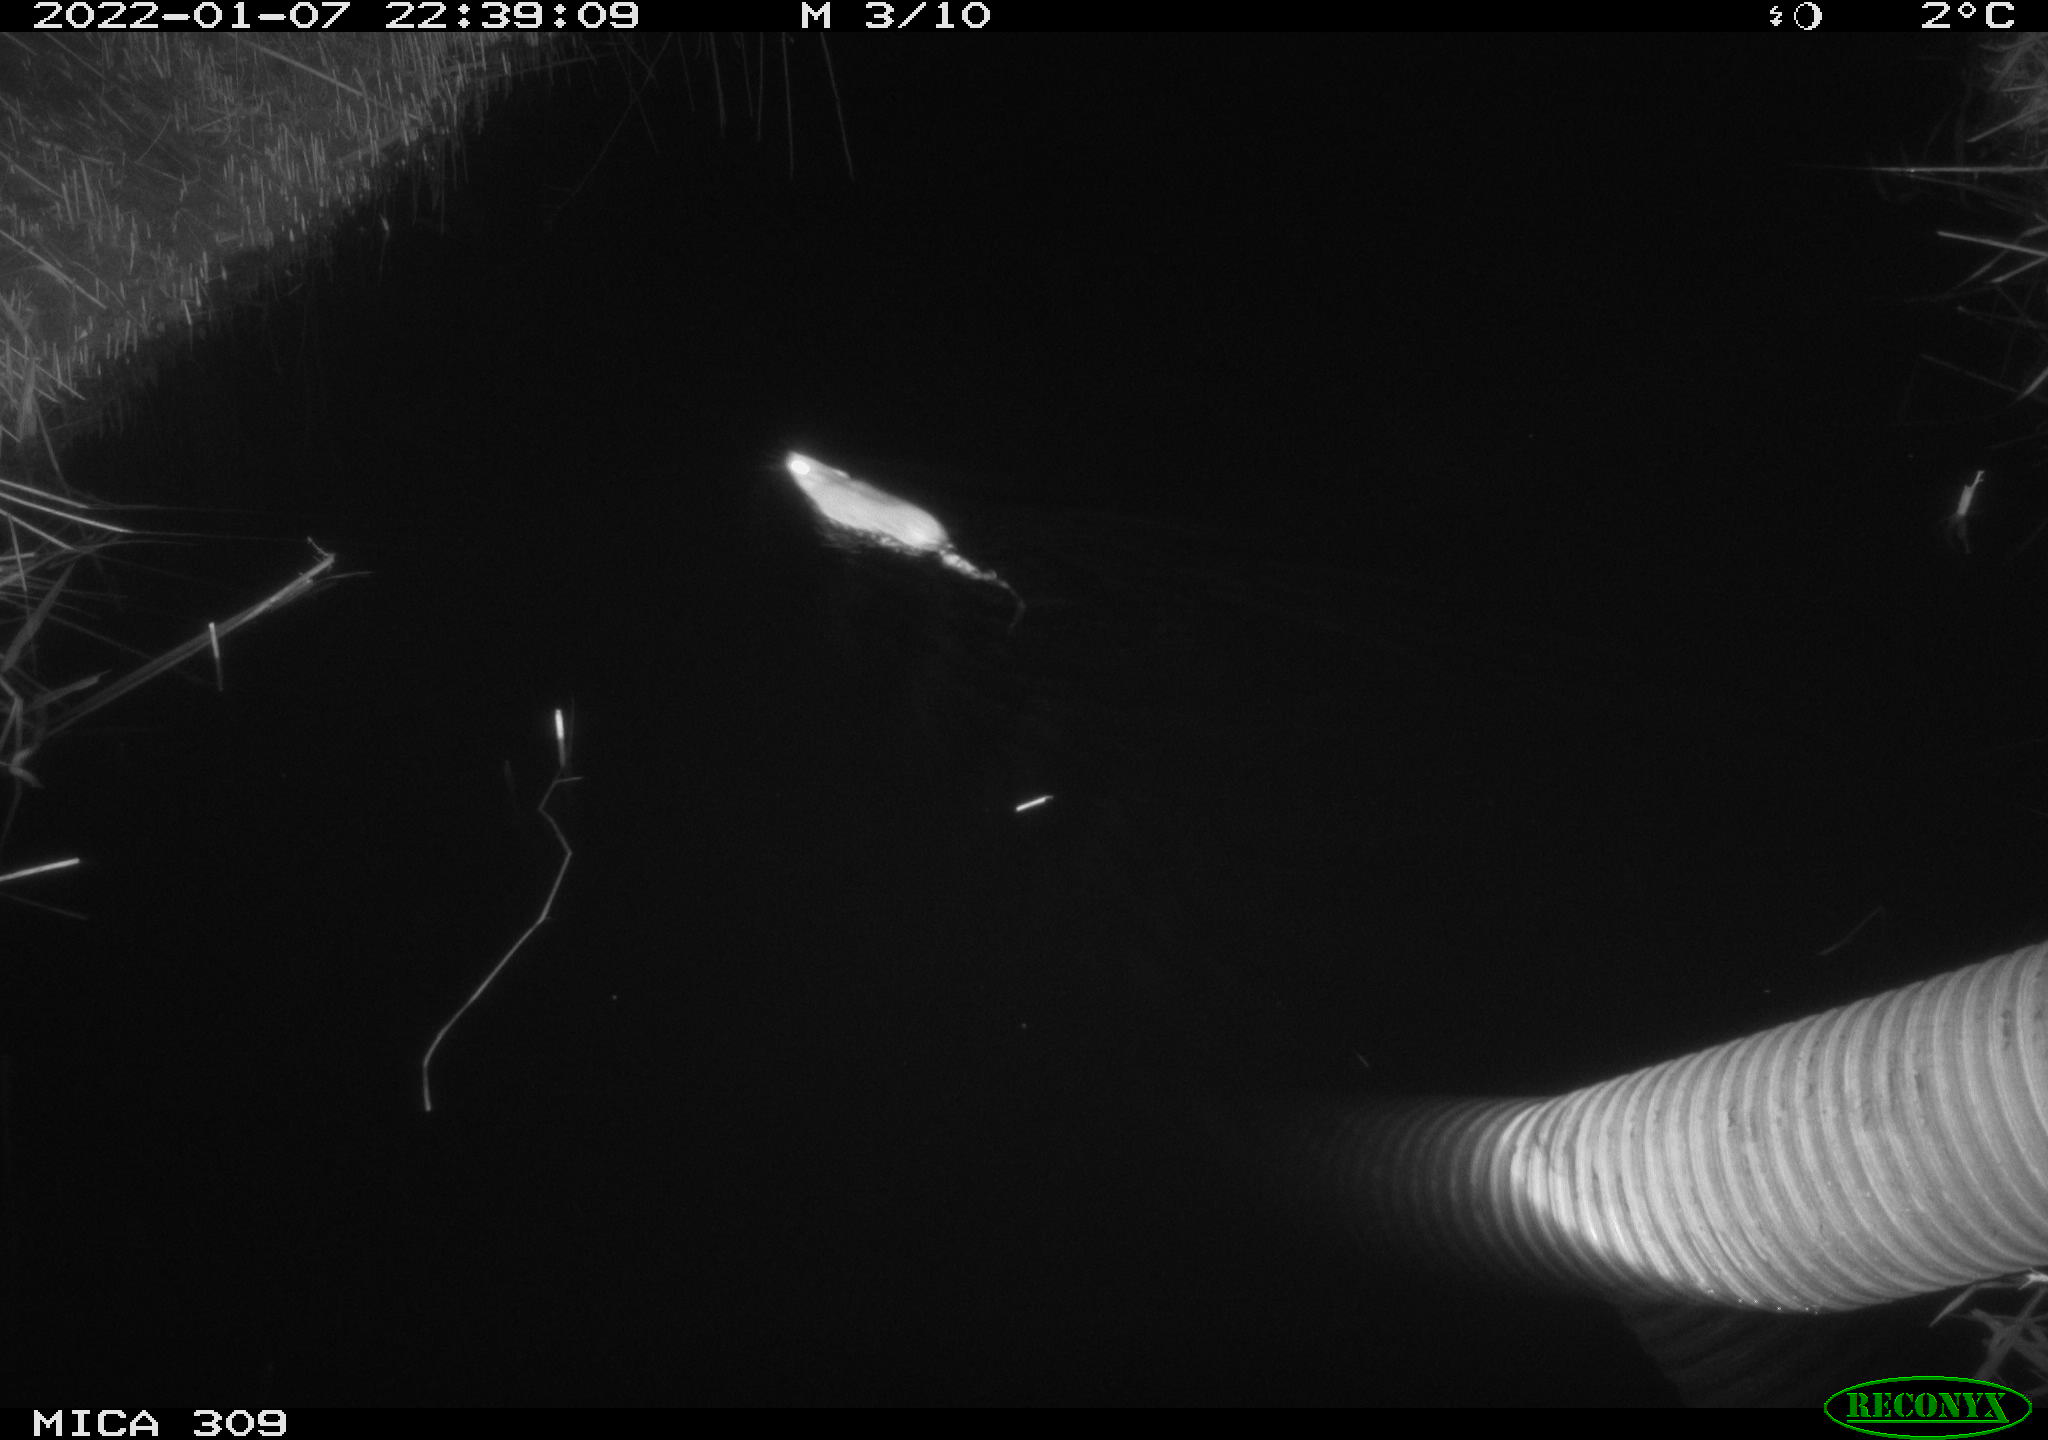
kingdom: Animalia
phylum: Chordata
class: Mammalia
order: Rodentia
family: Muridae
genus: Rattus
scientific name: Rattus norvegicus
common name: Brown rat
